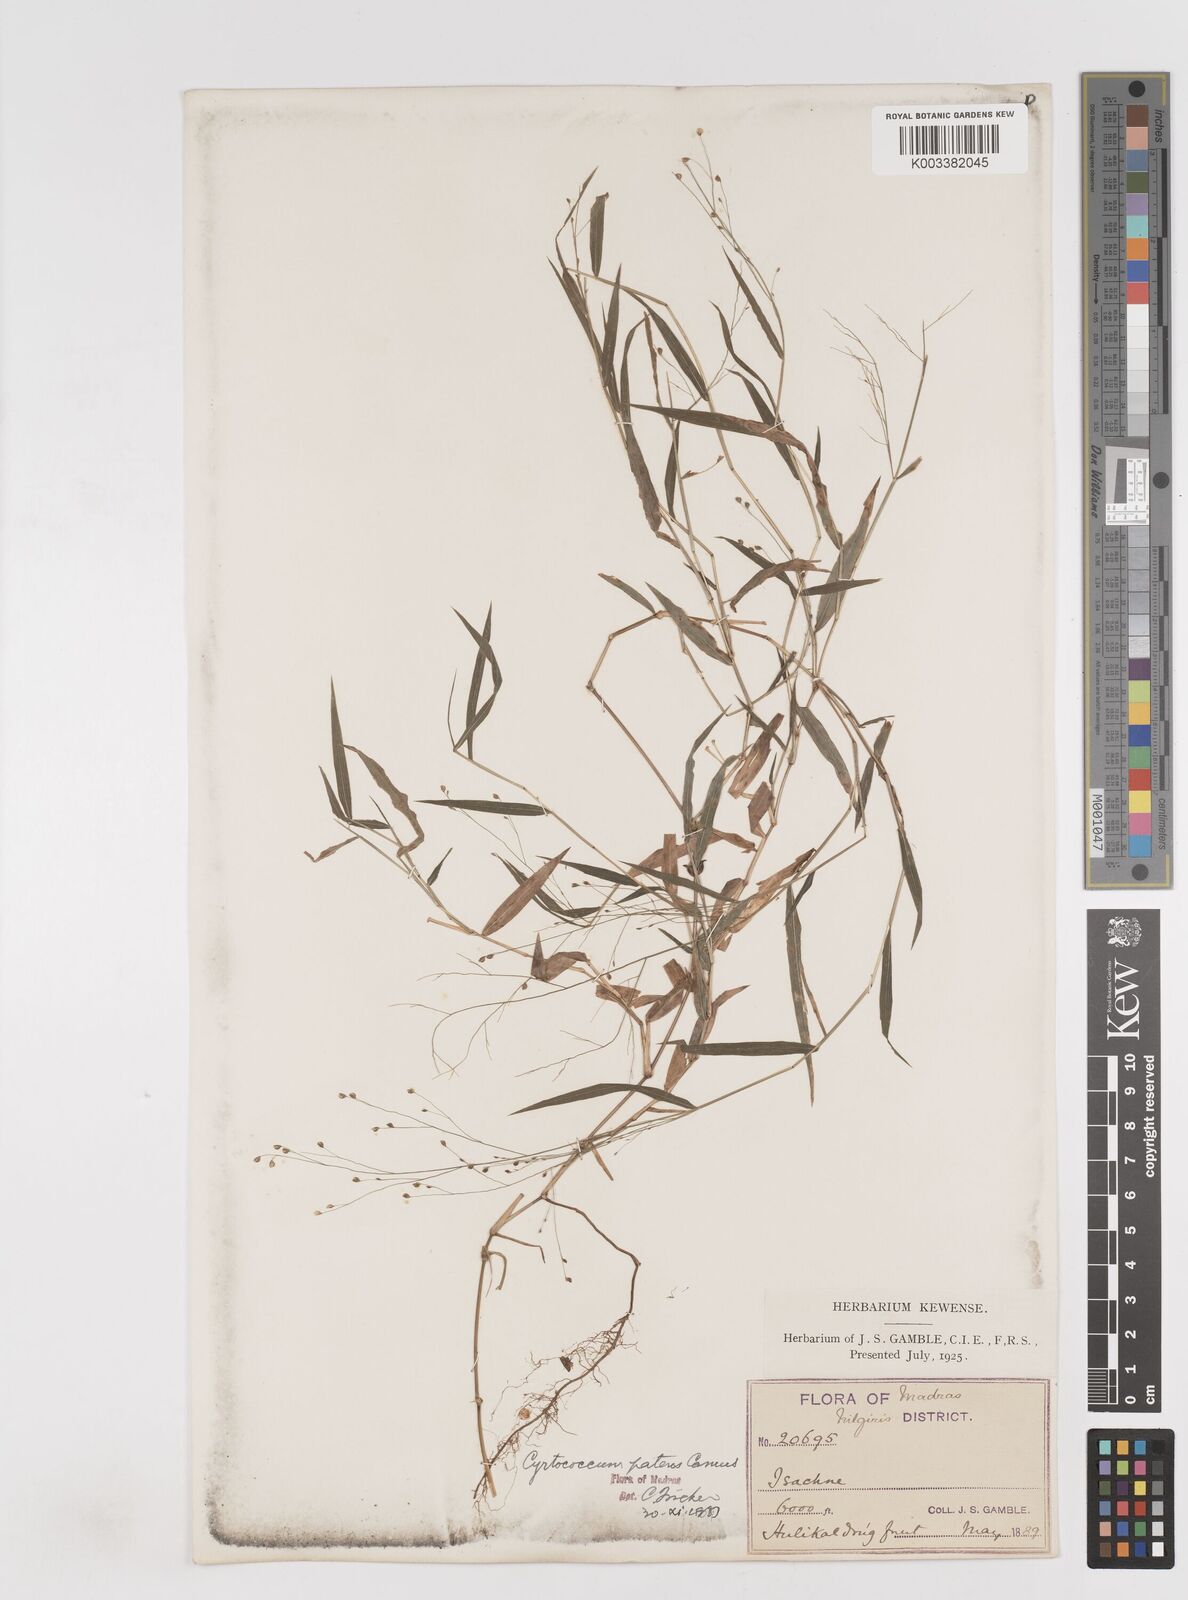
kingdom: Plantae
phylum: Tracheophyta
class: Liliopsida
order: Poales
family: Poaceae
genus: Cyrtococcum
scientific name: Cyrtococcum deccanense
